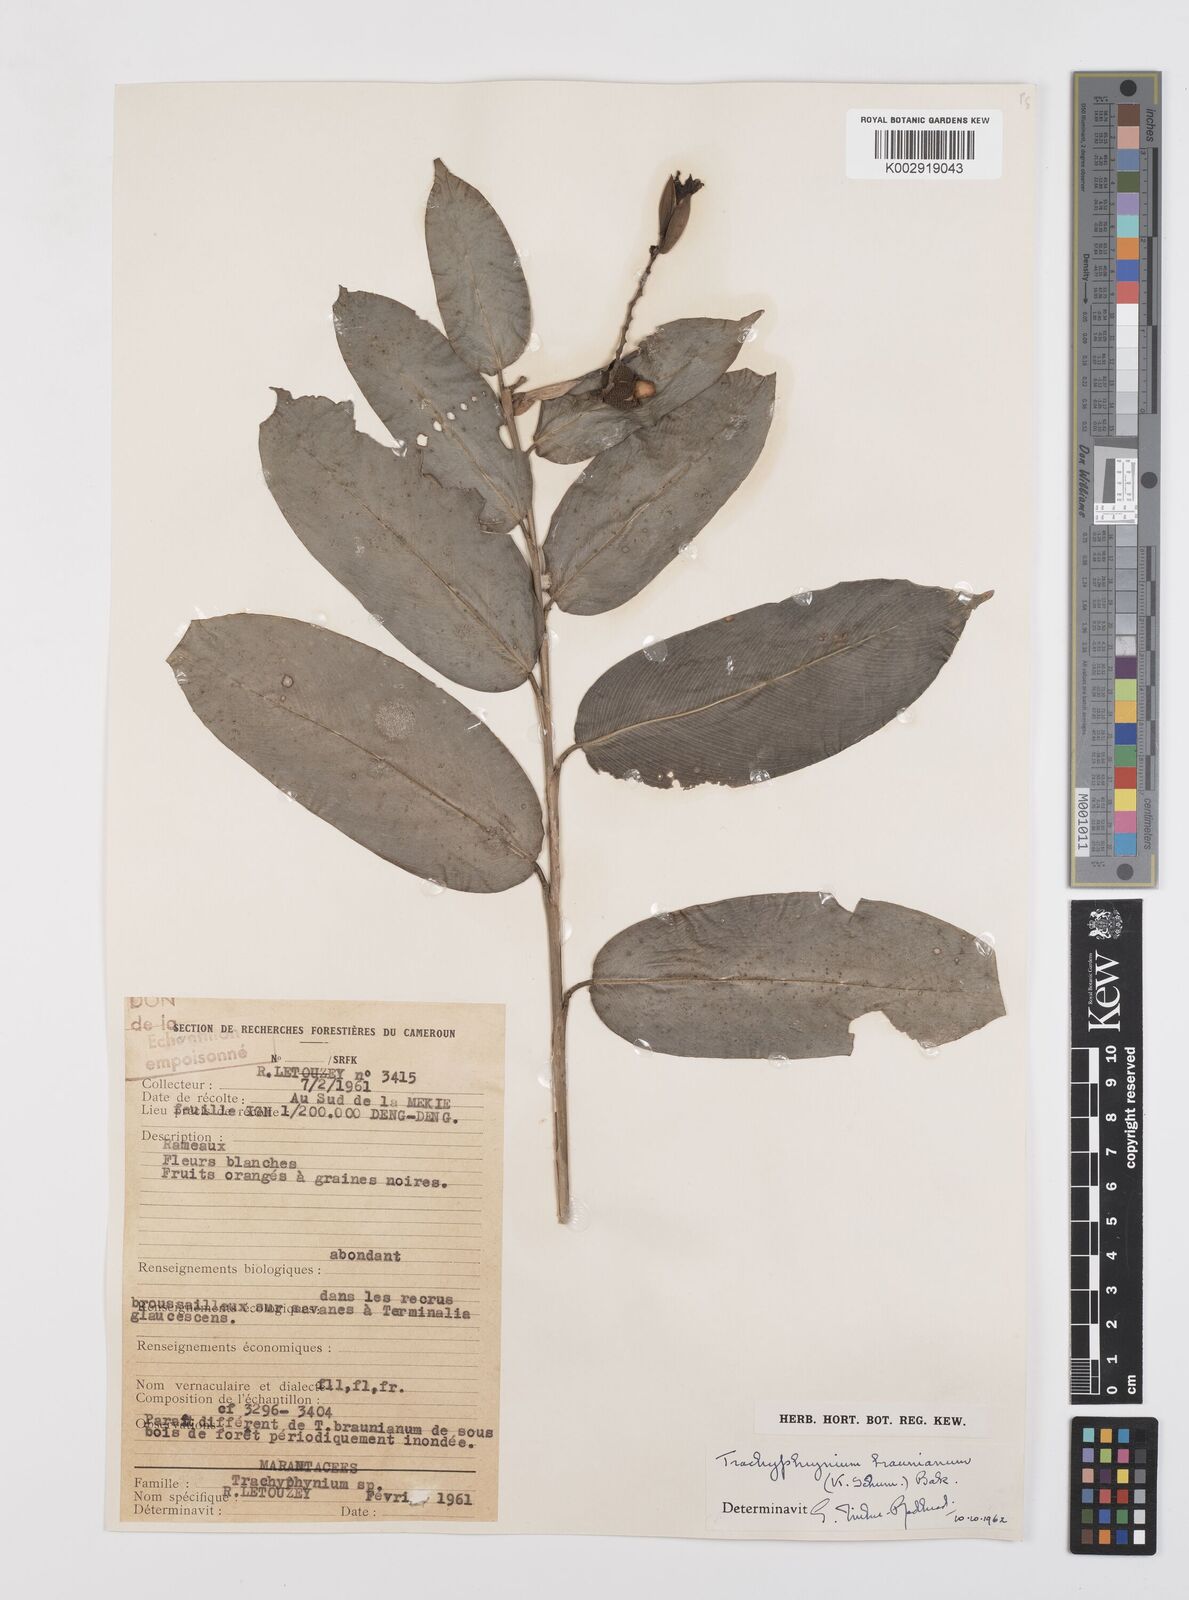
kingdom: Plantae
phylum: Tracheophyta
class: Liliopsida
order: Zingiberales
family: Marantaceae
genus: Trachyphrynium
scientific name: Trachyphrynium braunianum
